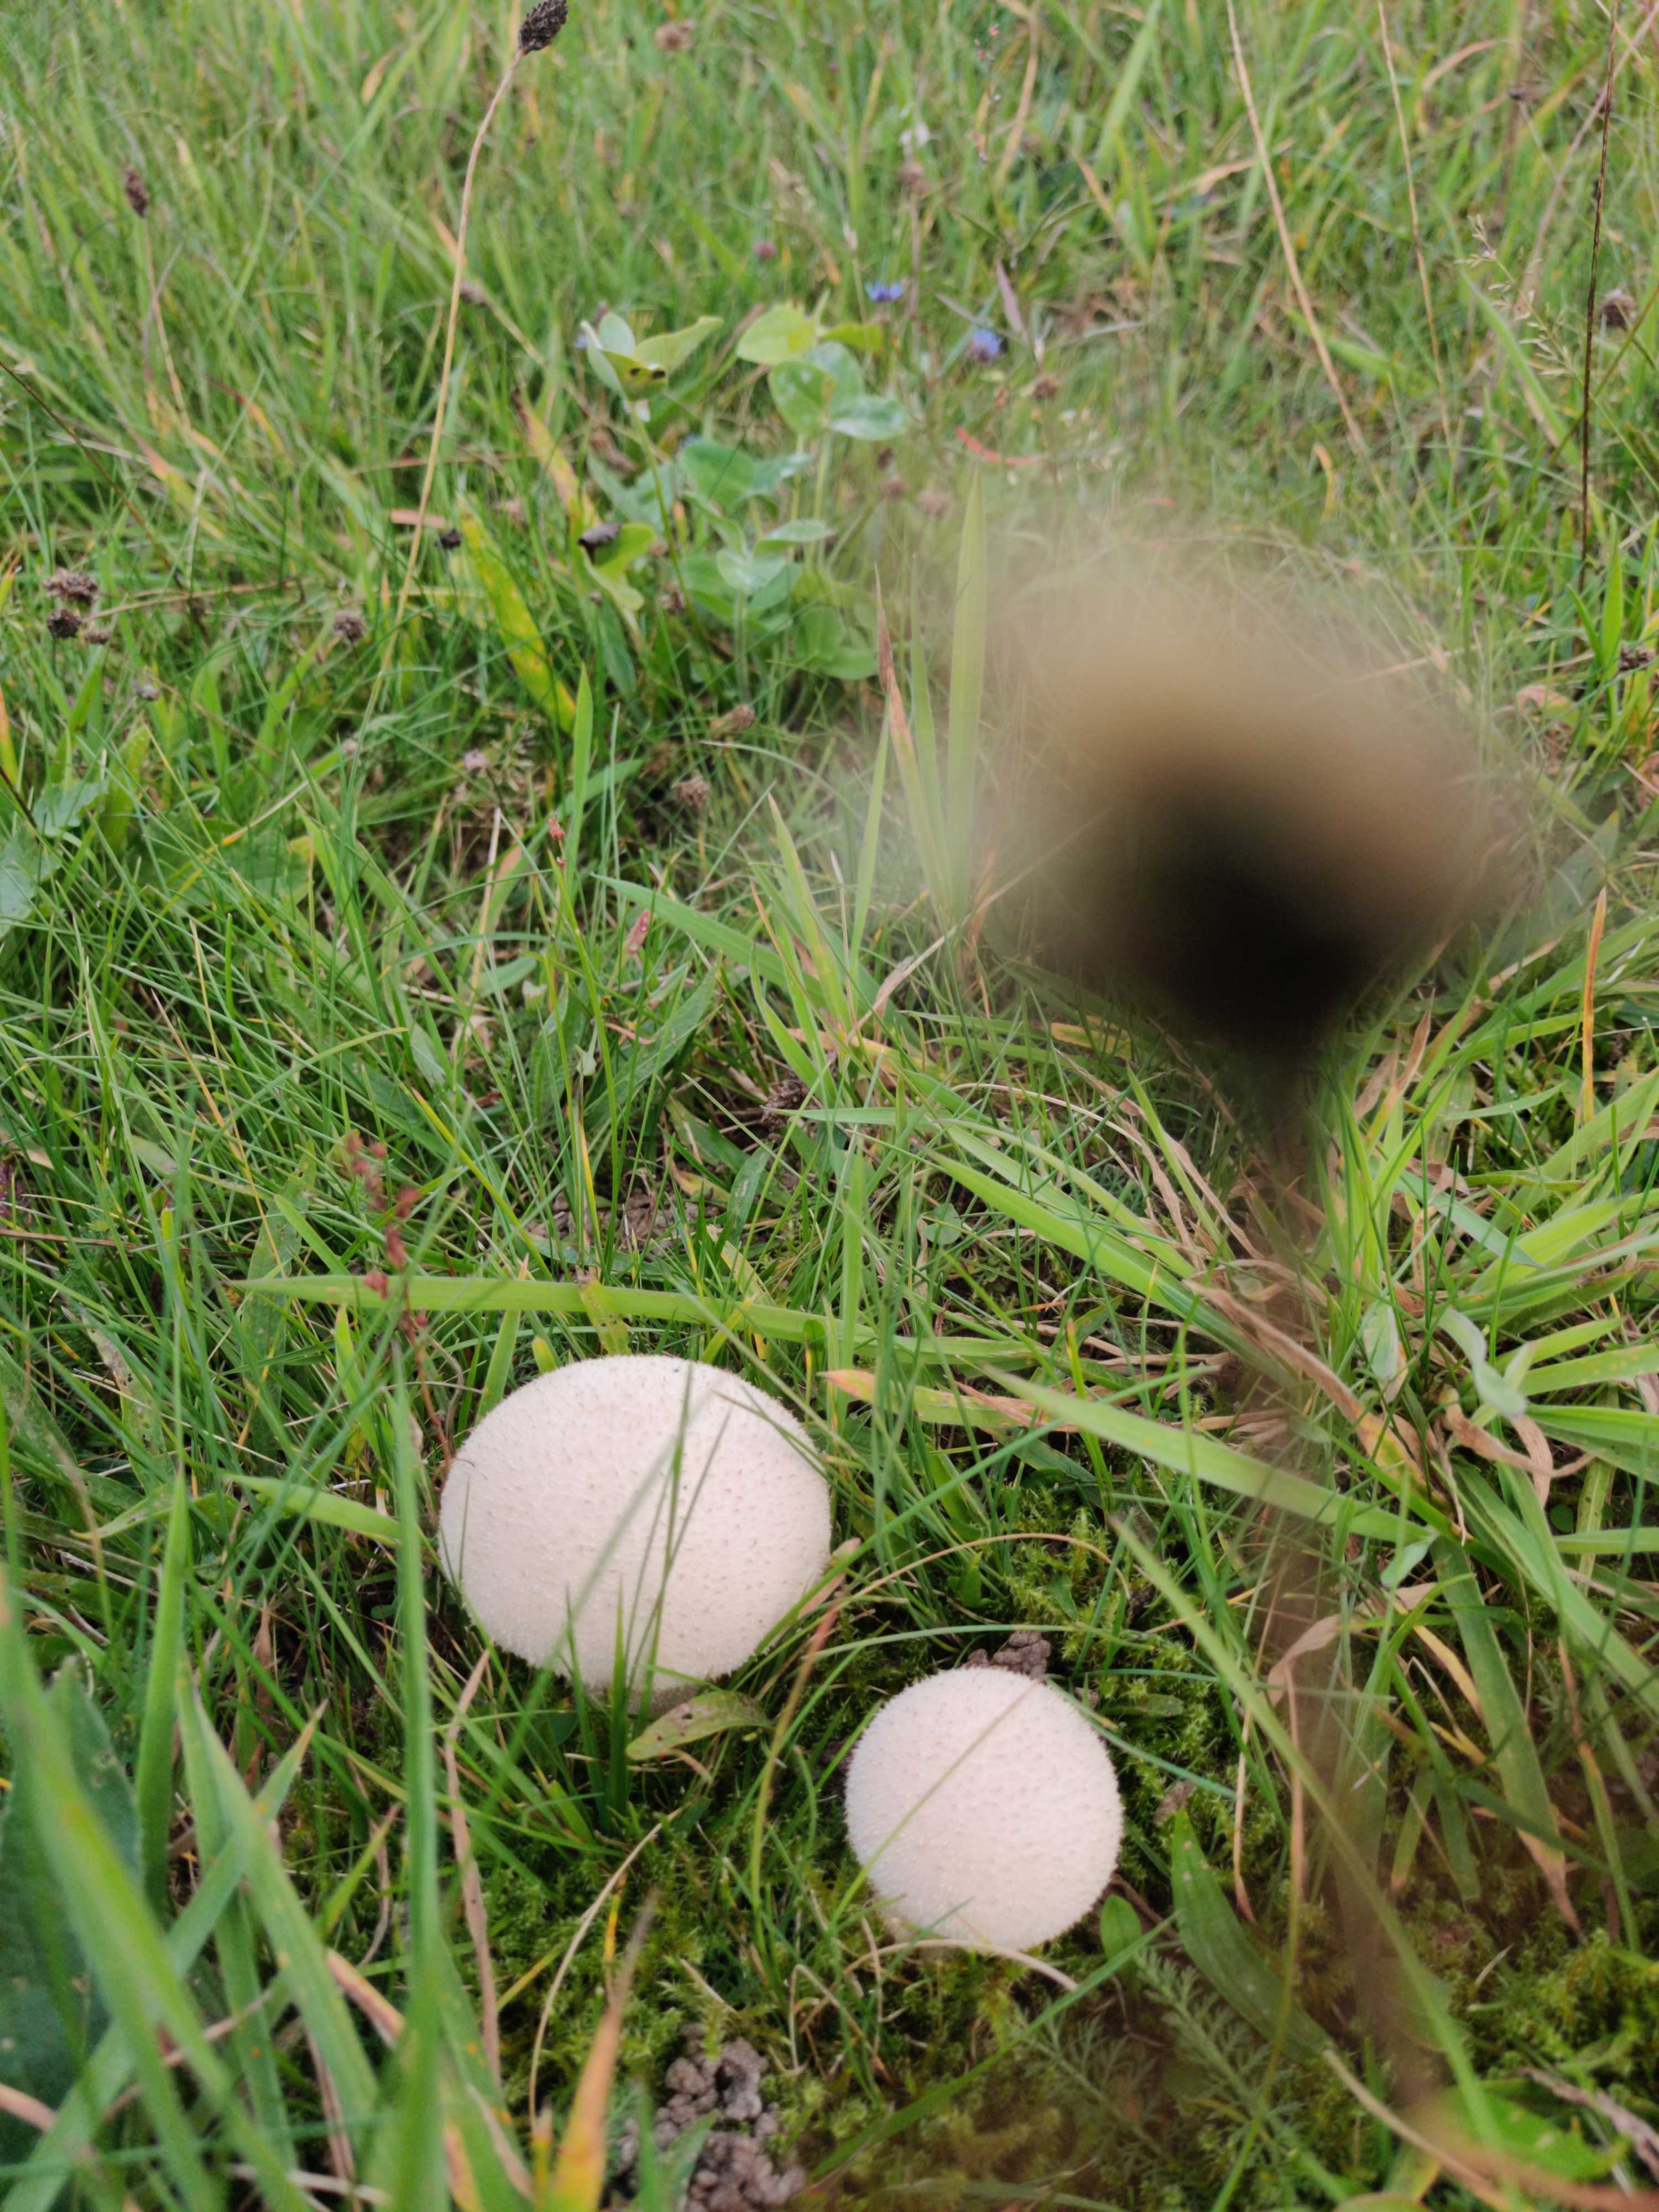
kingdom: Fungi
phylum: Basidiomycota
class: Agaricomycetes
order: Agaricales
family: Agaricaceae
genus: Lycoperdon
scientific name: Lycoperdon
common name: støvbold
